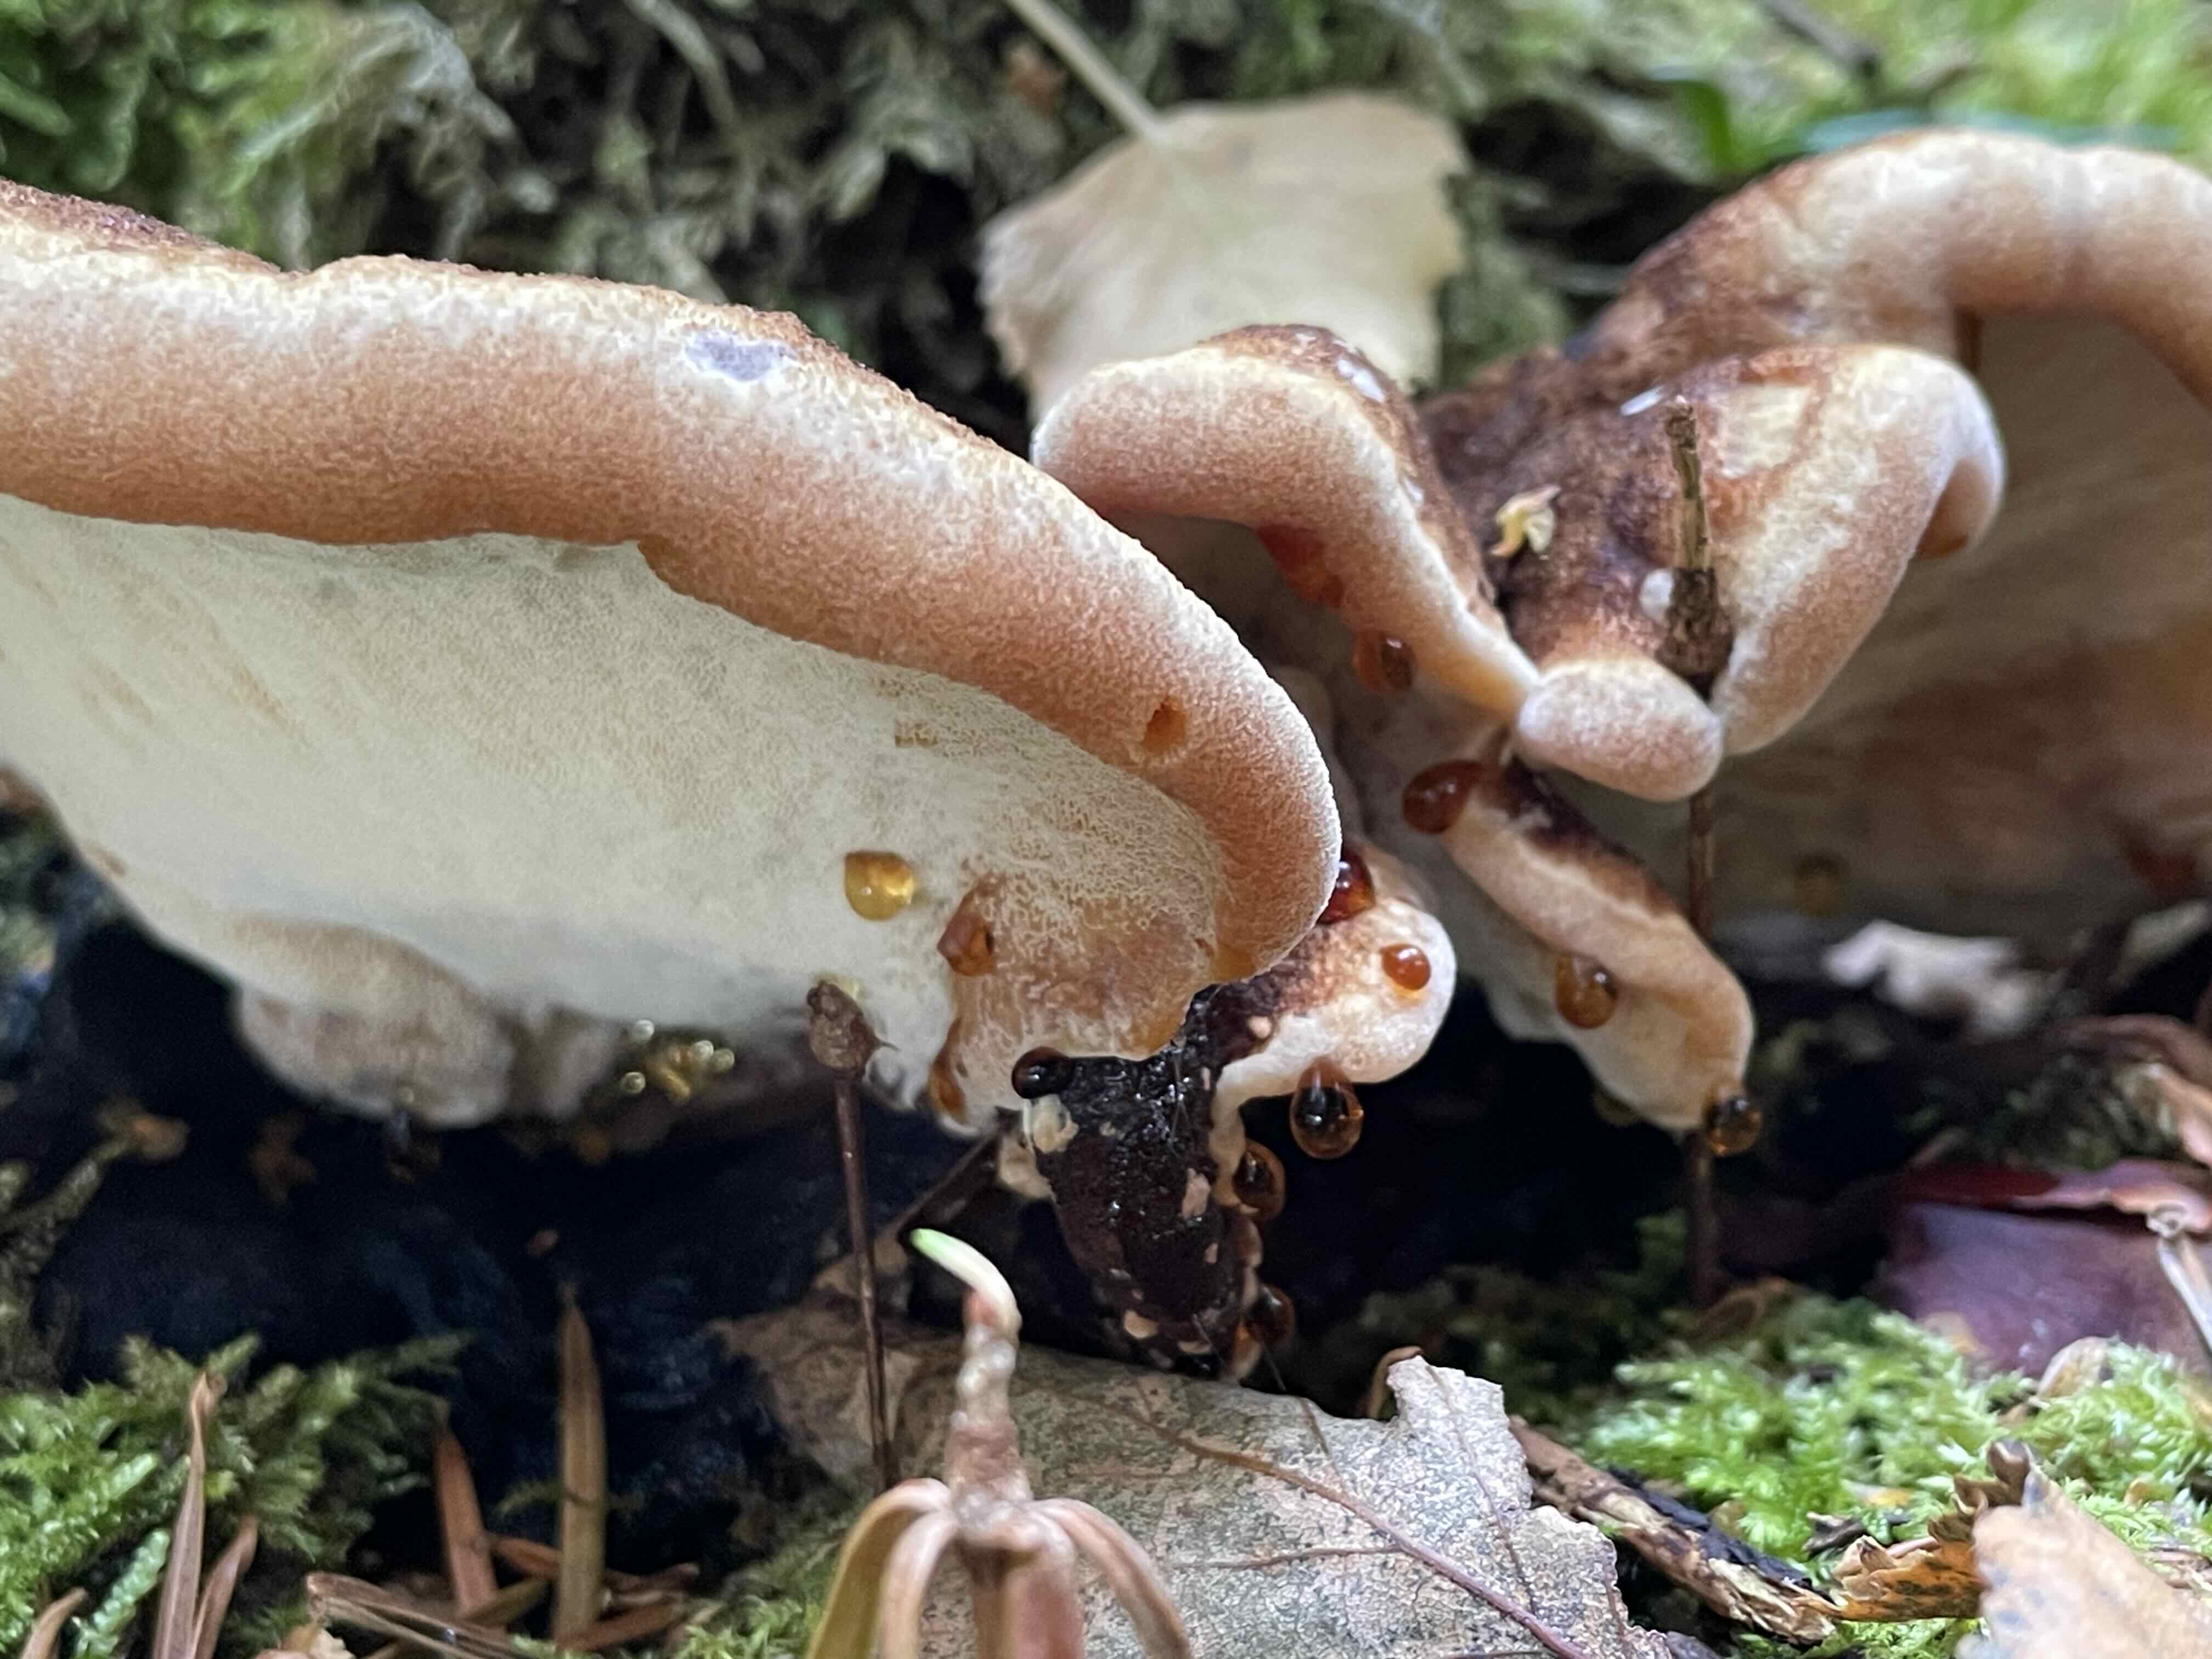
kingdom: Fungi
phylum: Basidiomycota
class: Agaricomycetes
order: Polyporales
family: Ischnodermataceae
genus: Ischnoderma
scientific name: Ischnoderma benzoinum
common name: gran-tjæreporesvamp
